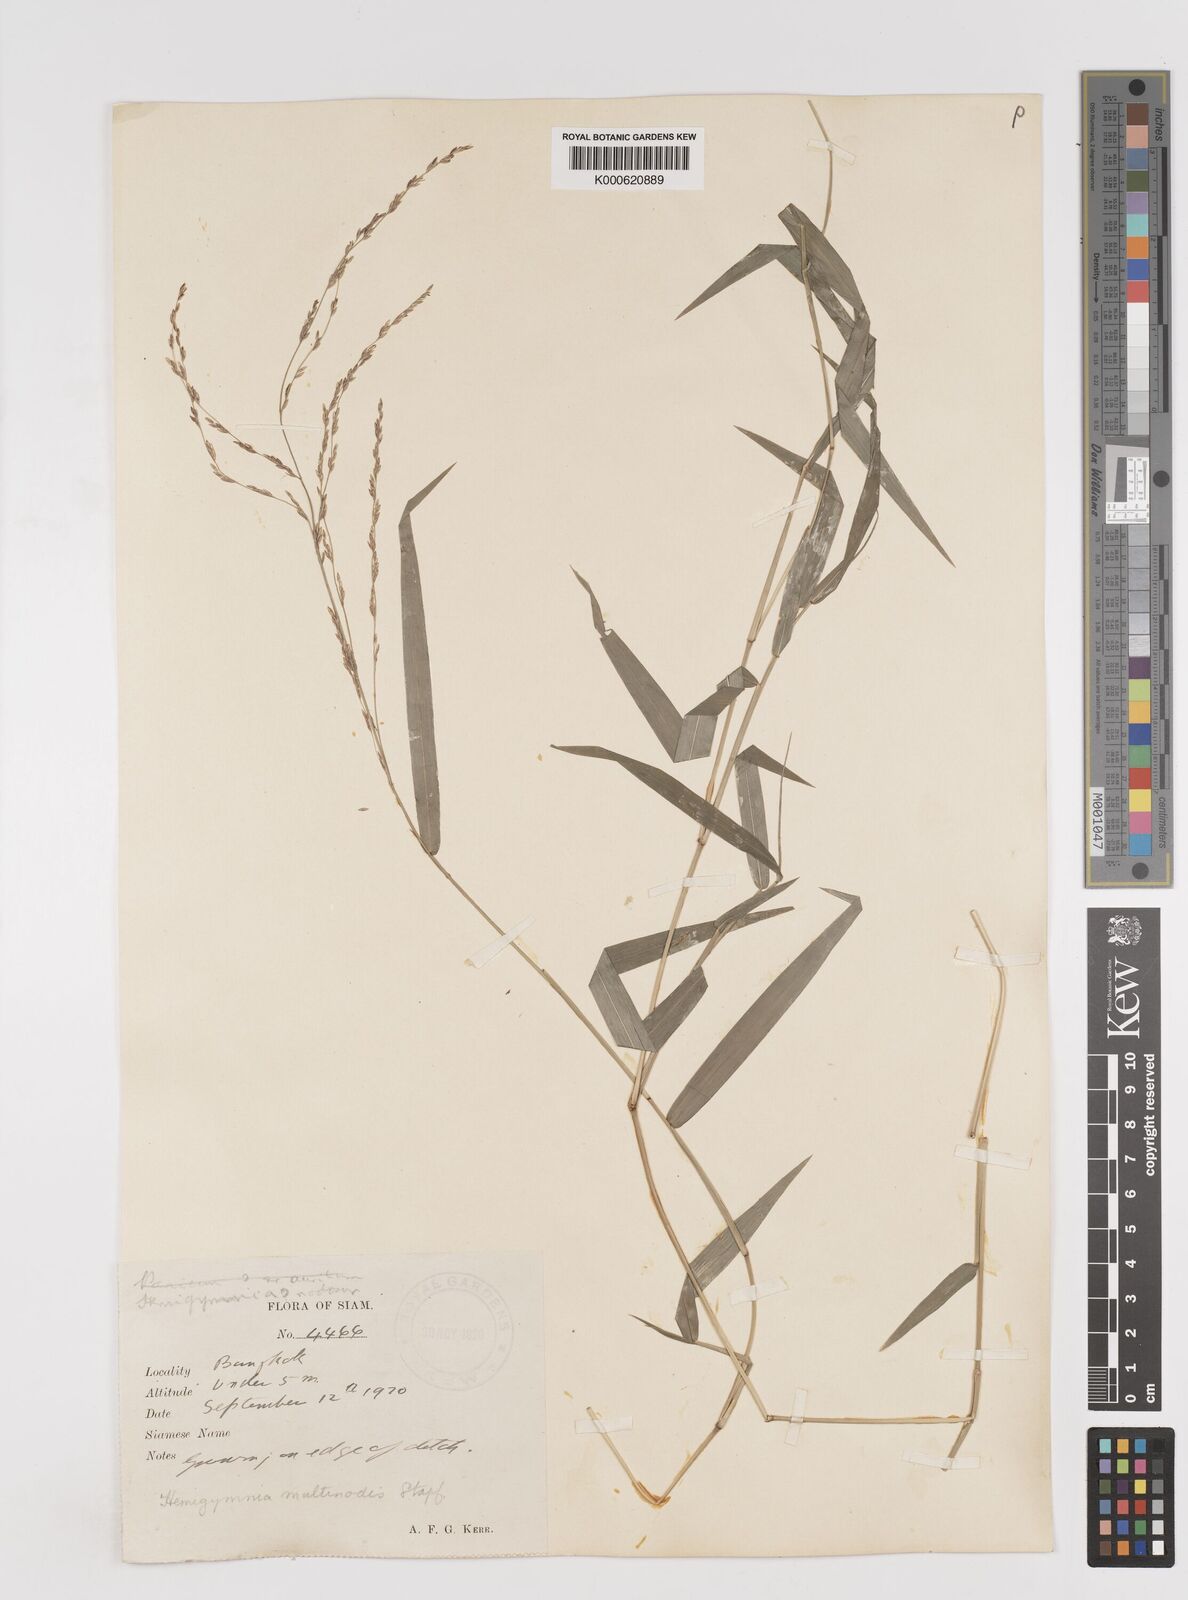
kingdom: Plantae
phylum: Tracheophyta
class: Liliopsida
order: Poales
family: Poaceae
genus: Ottochloa
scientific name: Ottochloa nodosa
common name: Slender-panic grass
